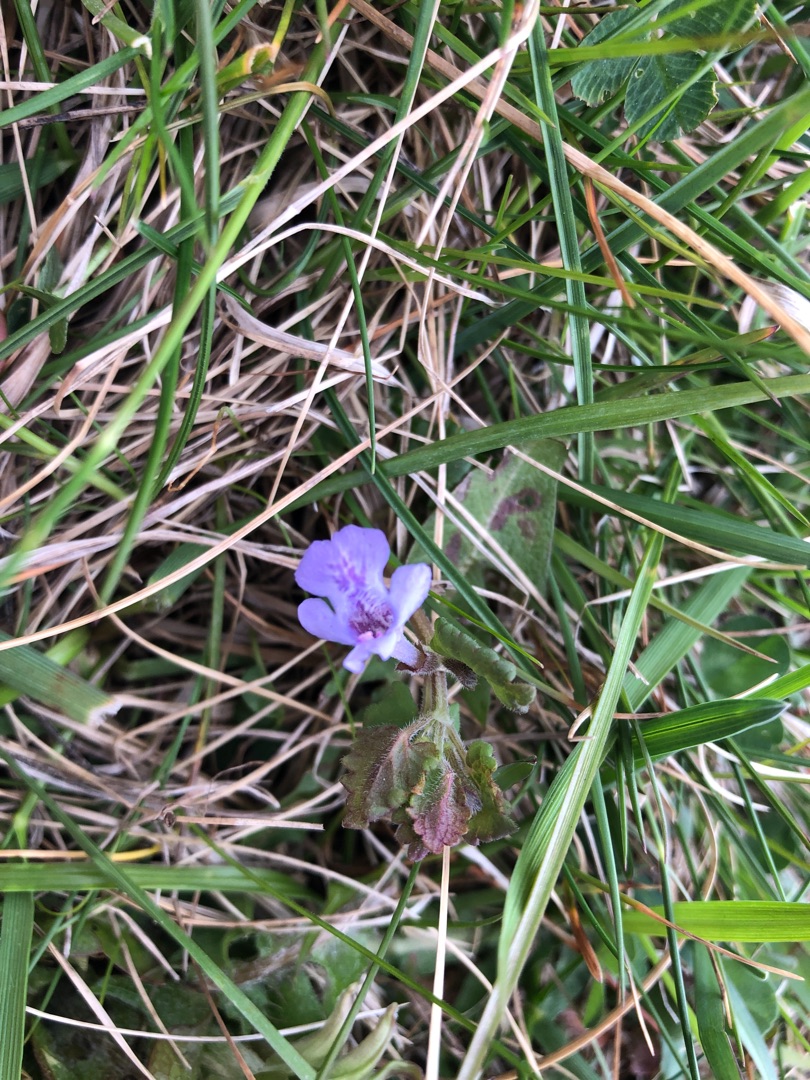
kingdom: Plantae
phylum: Tracheophyta
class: Magnoliopsida
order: Lamiales
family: Lamiaceae
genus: Glechoma
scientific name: Glechoma hederacea
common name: Korsknap
